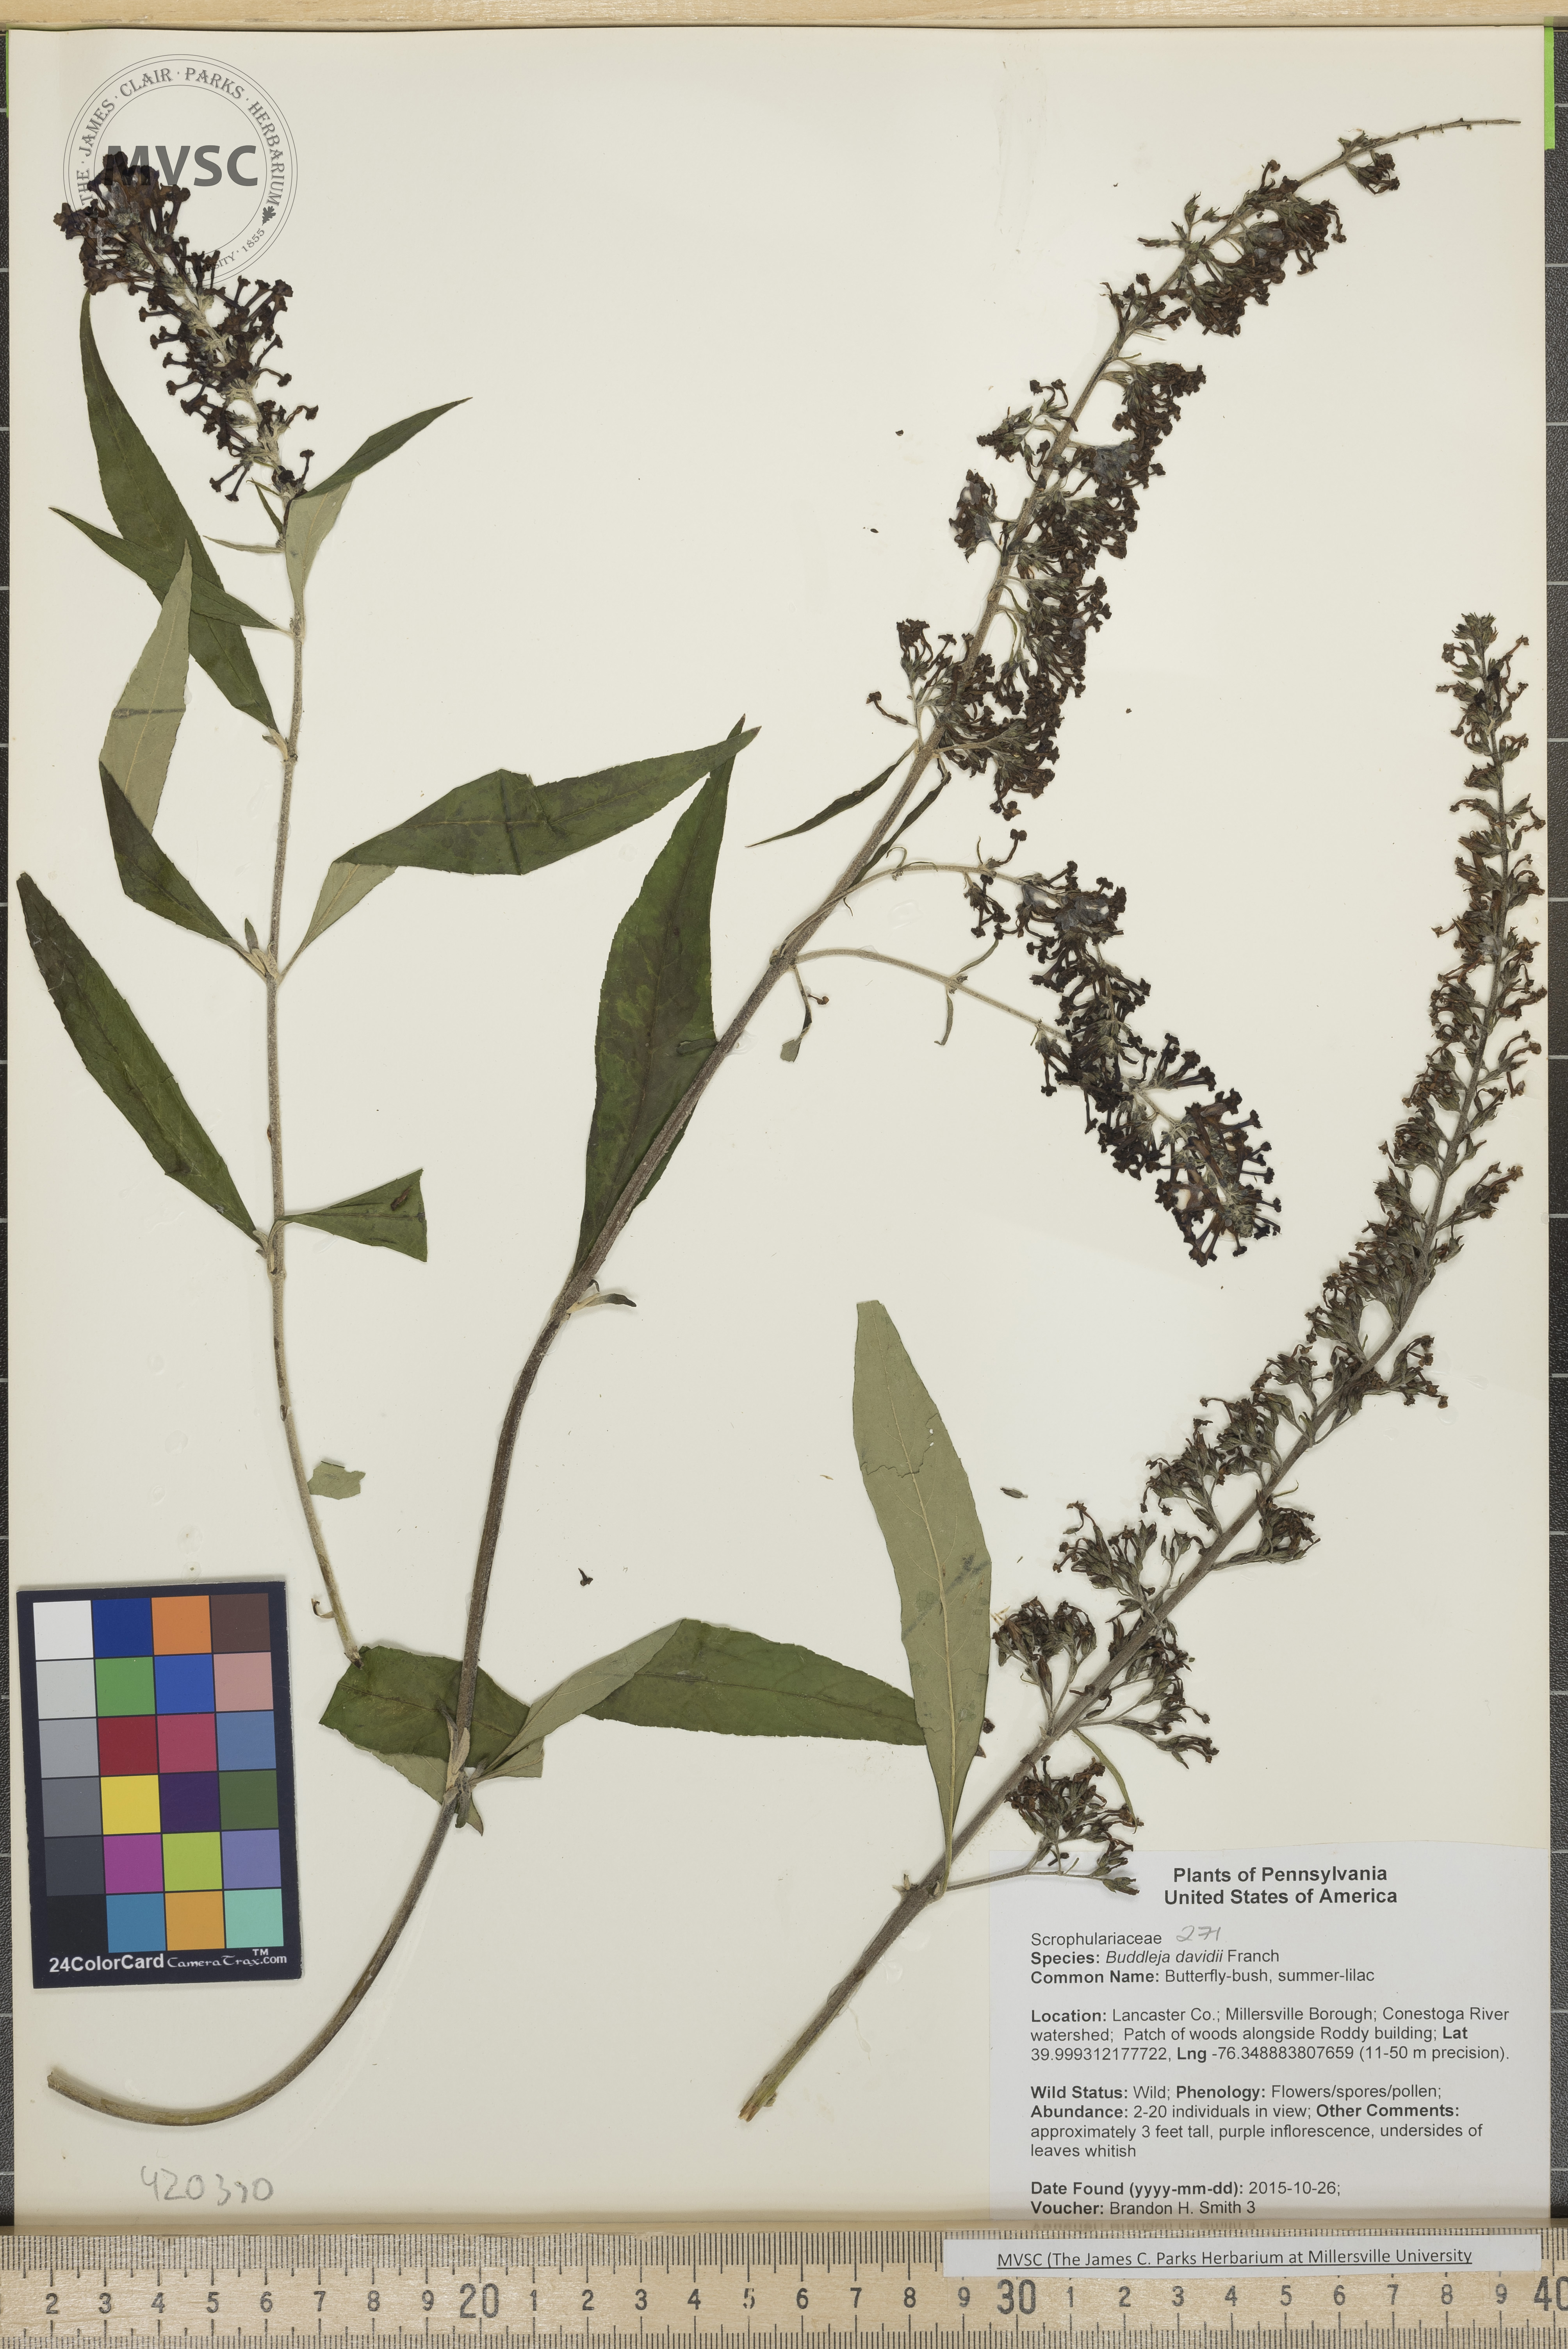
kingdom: Plantae
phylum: Tracheophyta
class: Magnoliopsida
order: Lamiales
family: Scrophulariaceae
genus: Buddleja
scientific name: Buddleja davidii
